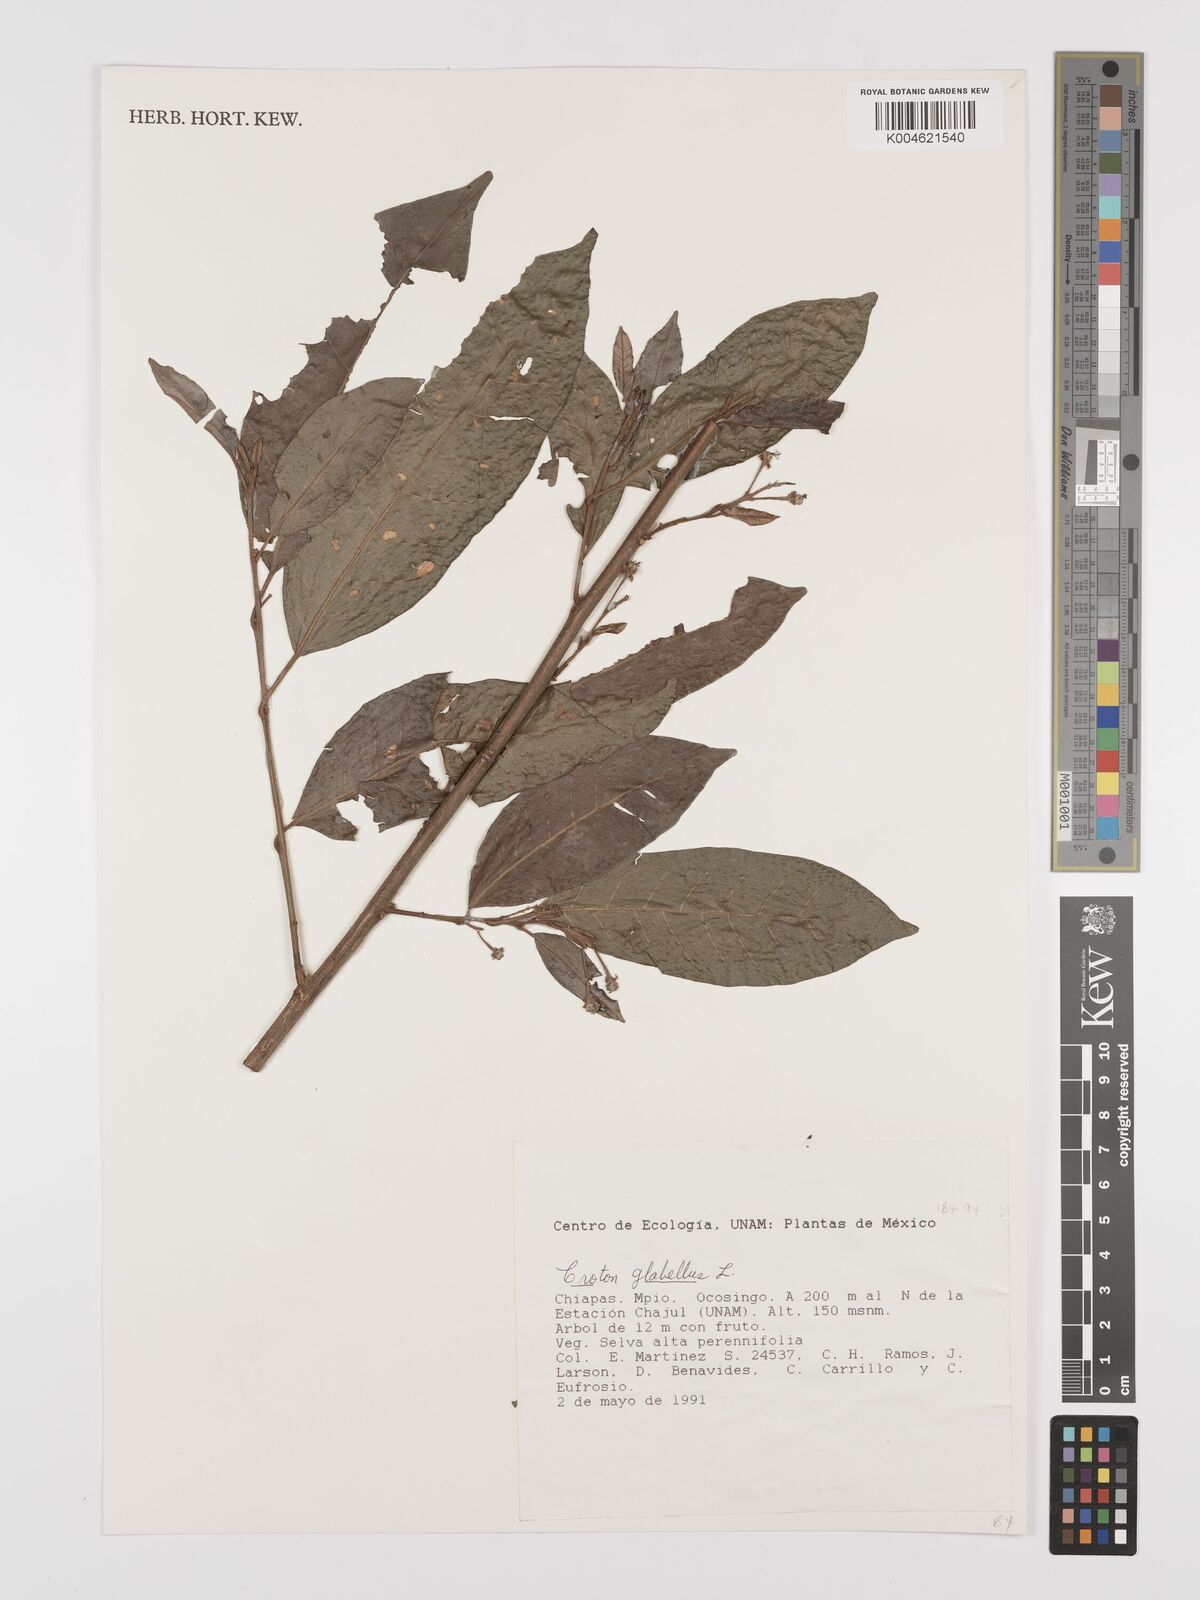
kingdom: Plantae
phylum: Tracheophyta
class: Magnoliopsida
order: Malpighiales
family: Euphorbiaceae
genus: Croton
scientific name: Croton glabellus
